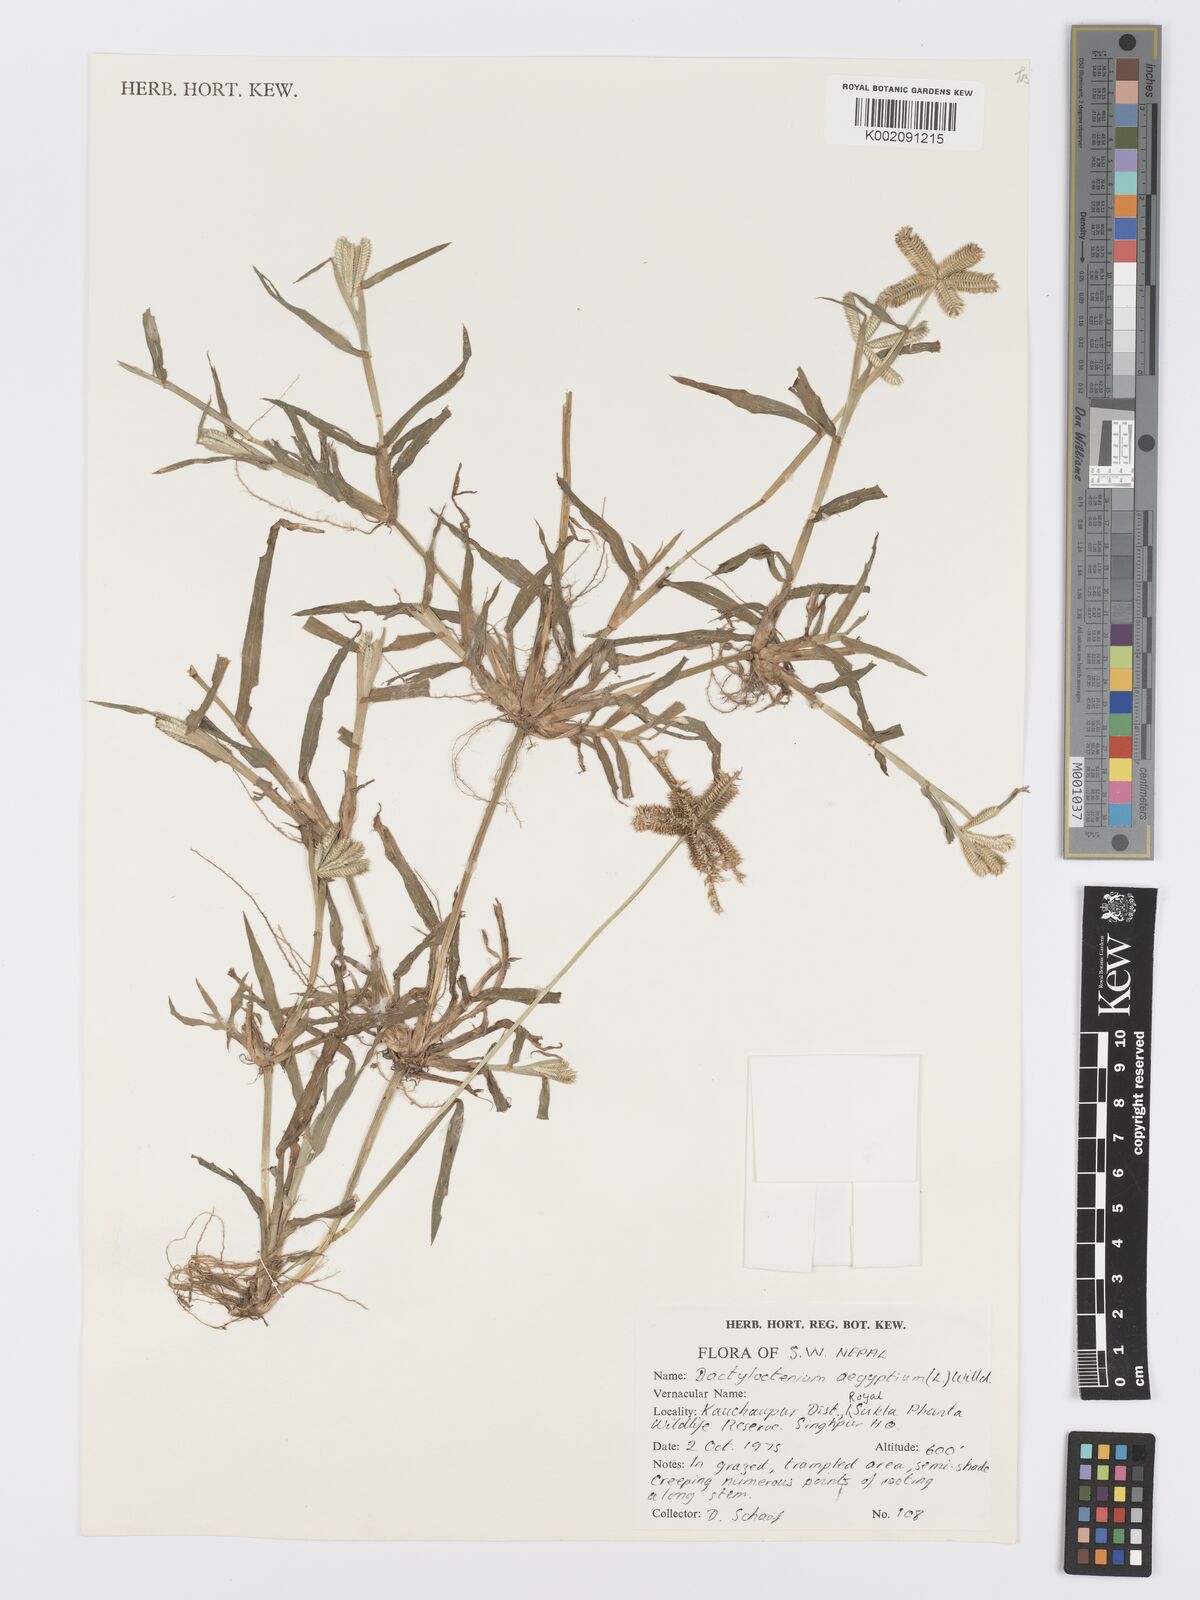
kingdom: Plantae
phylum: Tracheophyta
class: Liliopsida
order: Poales
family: Poaceae
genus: Dactyloctenium
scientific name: Dactyloctenium aegyptium
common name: Egyptian grass
